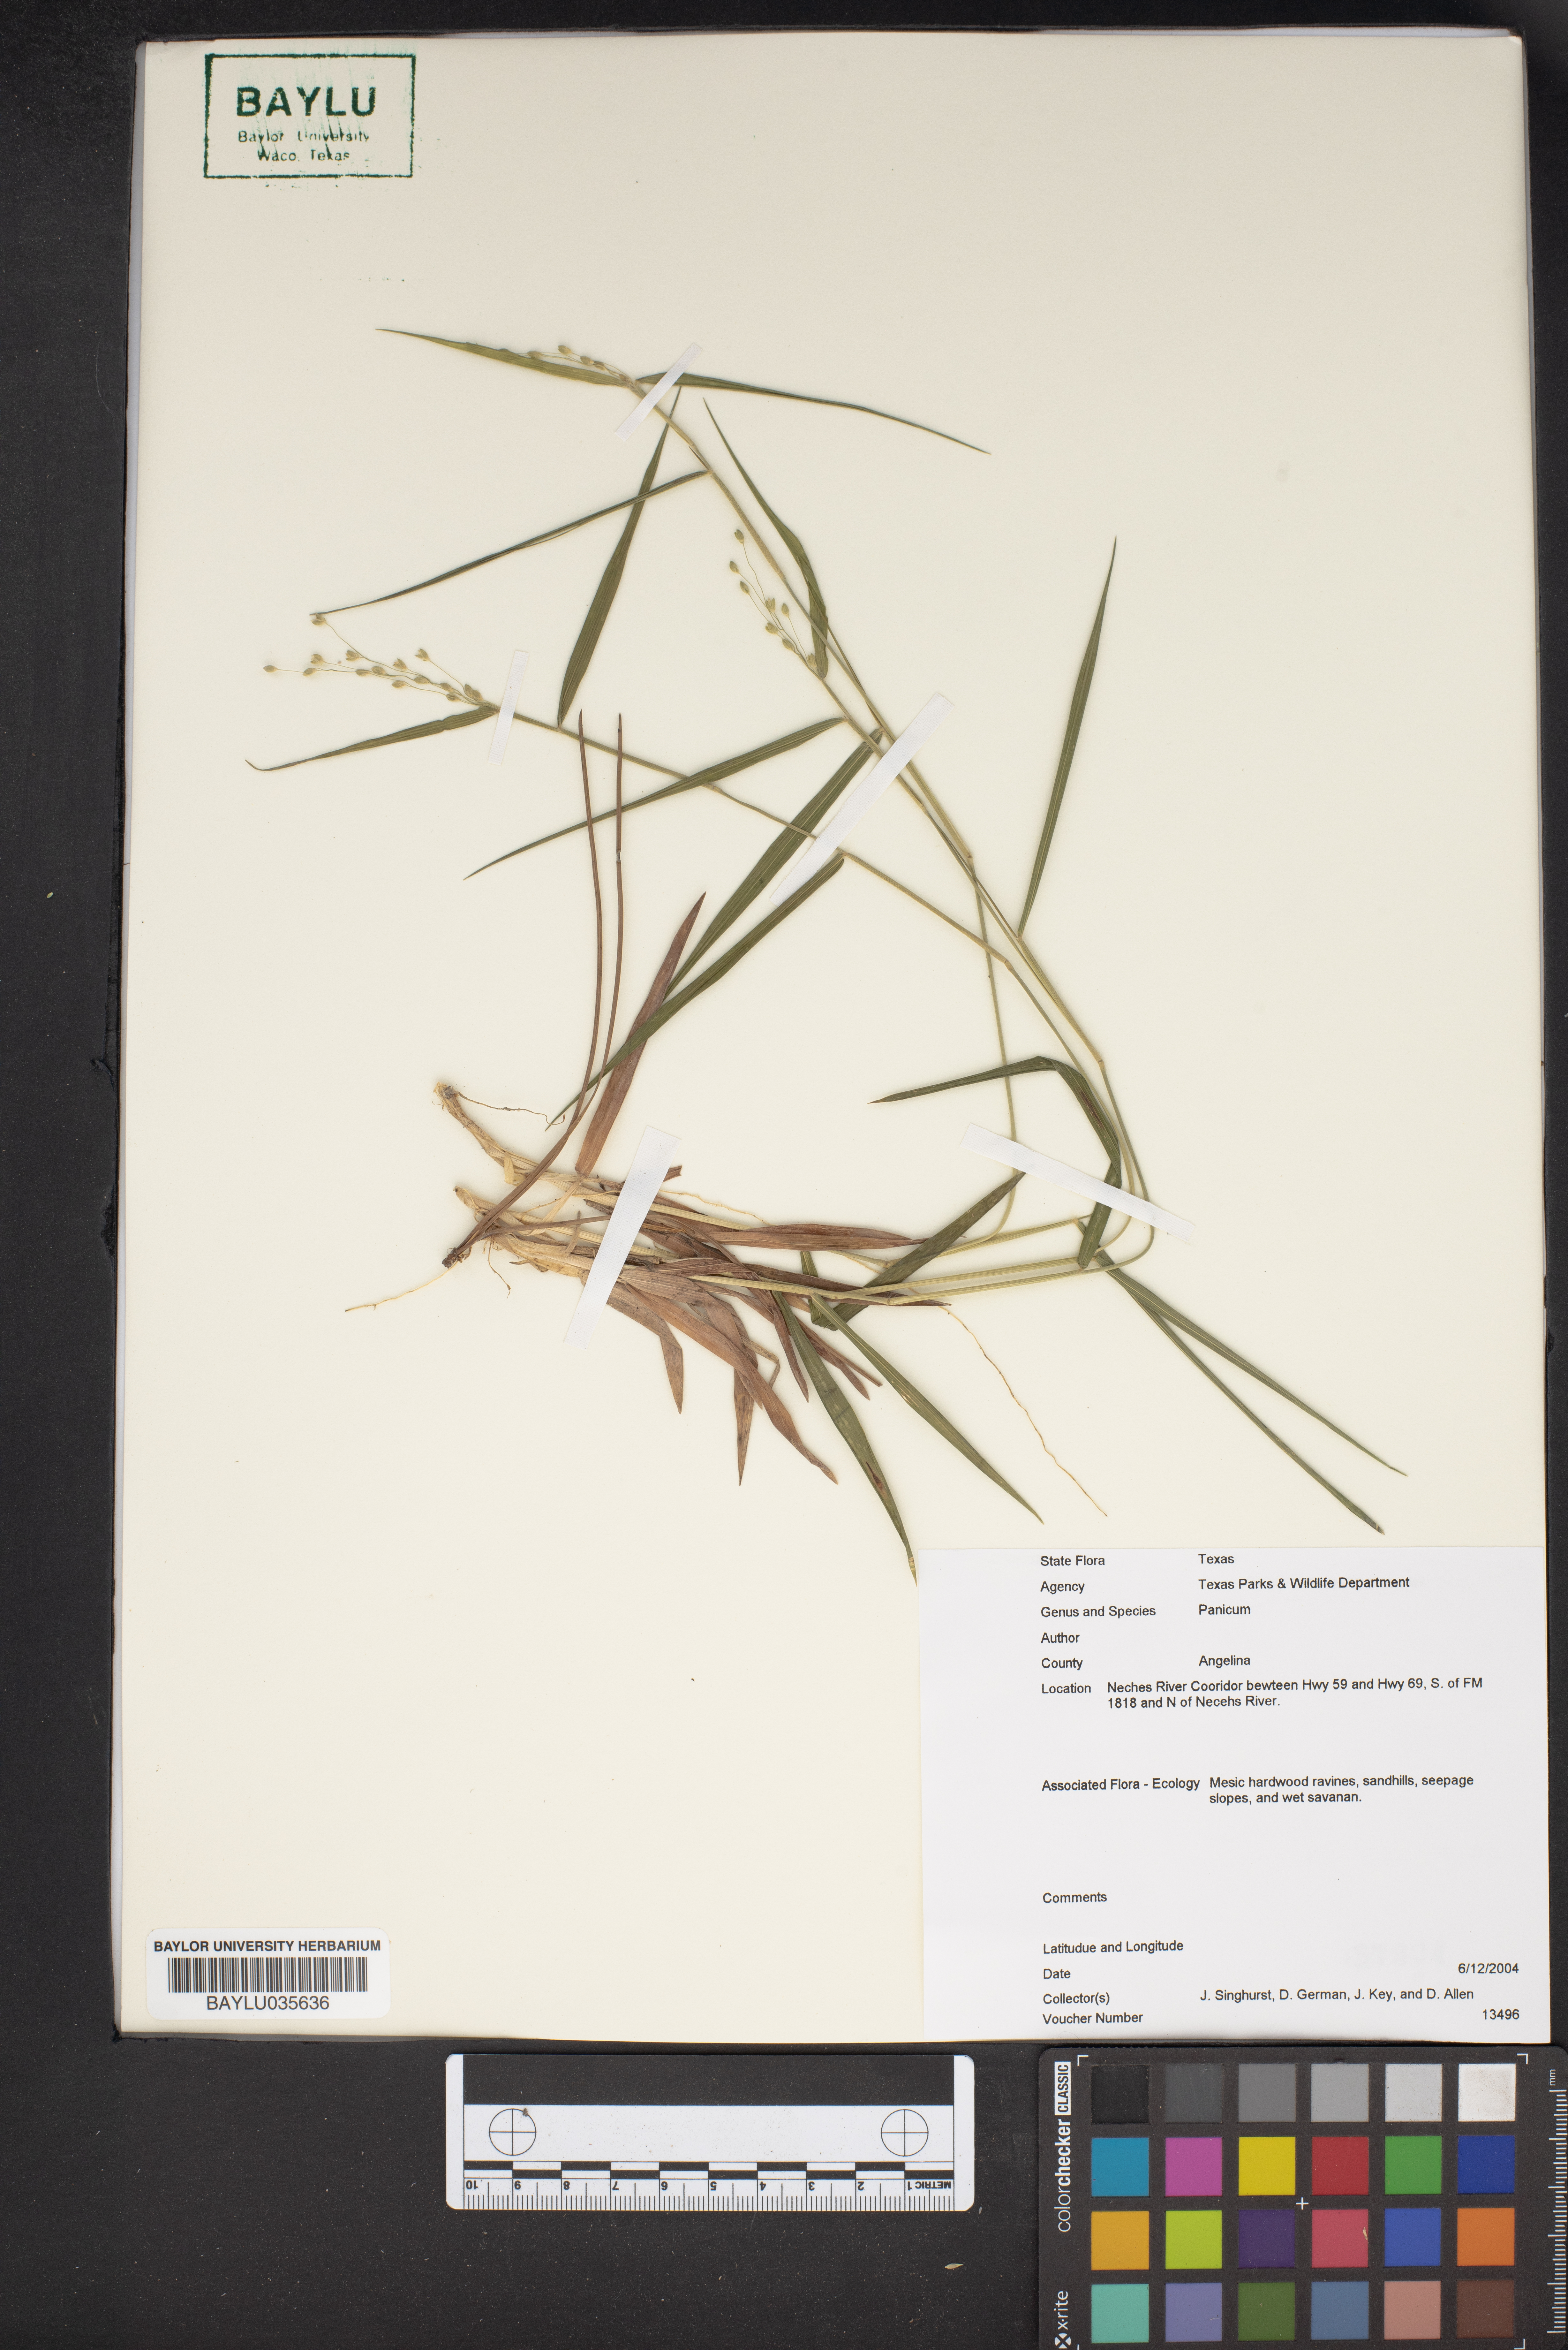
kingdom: Plantae
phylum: Tracheophyta
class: Liliopsida
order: Poales
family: Poaceae
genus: Panicum
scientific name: Panicum
